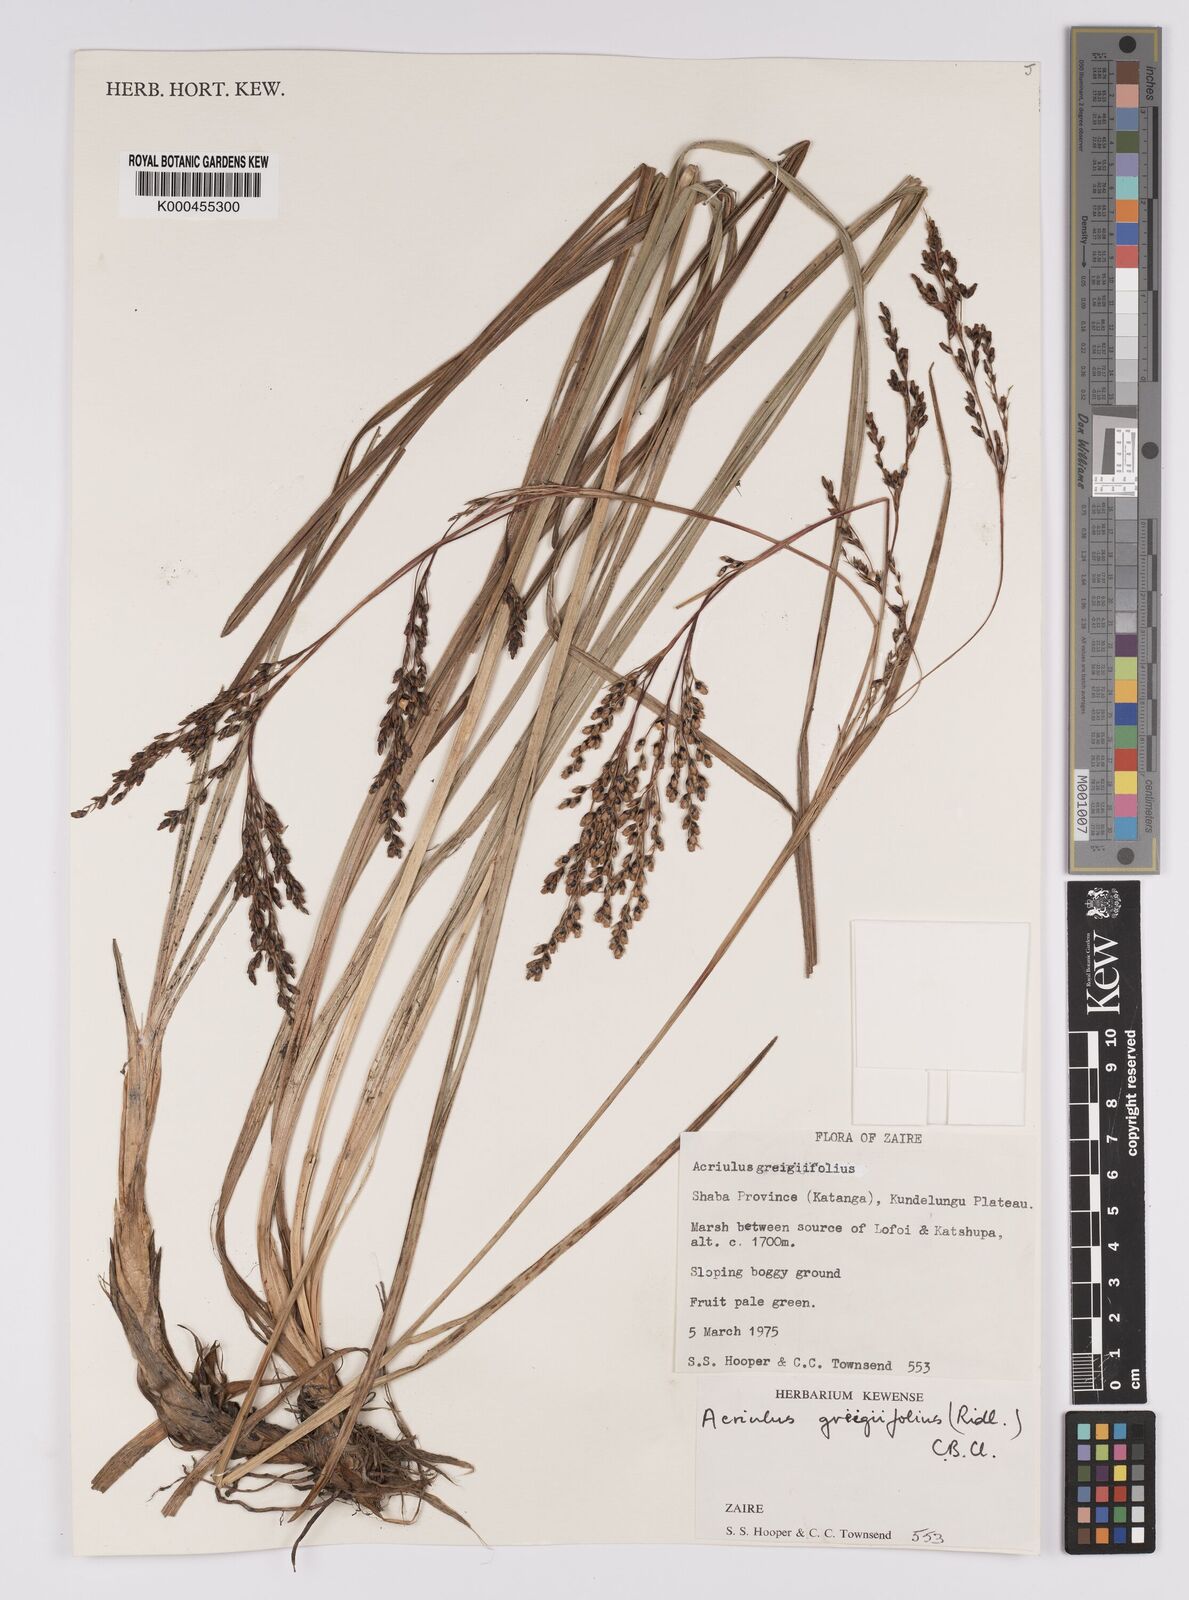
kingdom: Plantae
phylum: Tracheophyta
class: Liliopsida
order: Poales
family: Cyperaceae
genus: Scleria
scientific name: Scleria greigiifolia
